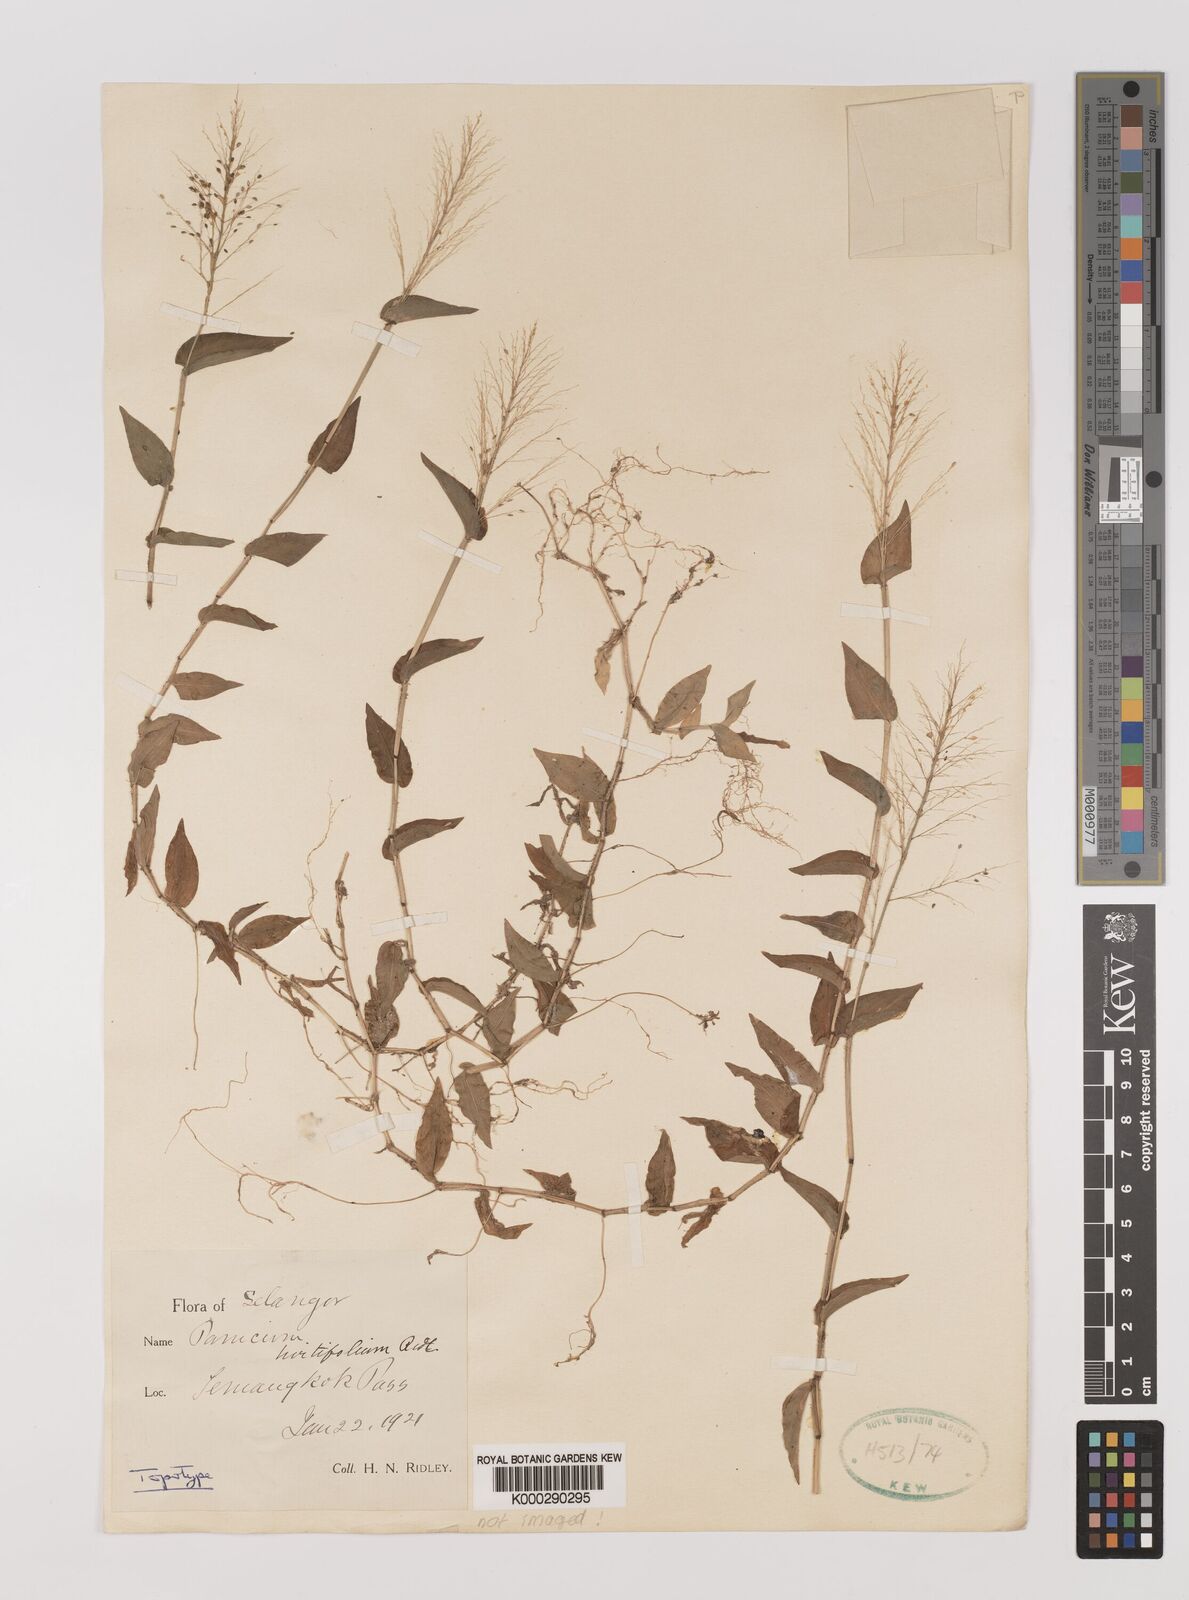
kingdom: Plantae
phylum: Tracheophyta
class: Liliopsida
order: Poales
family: Poaceae
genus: Panicum
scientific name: Panicum brevifolium
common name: Shortleaf panic grass
